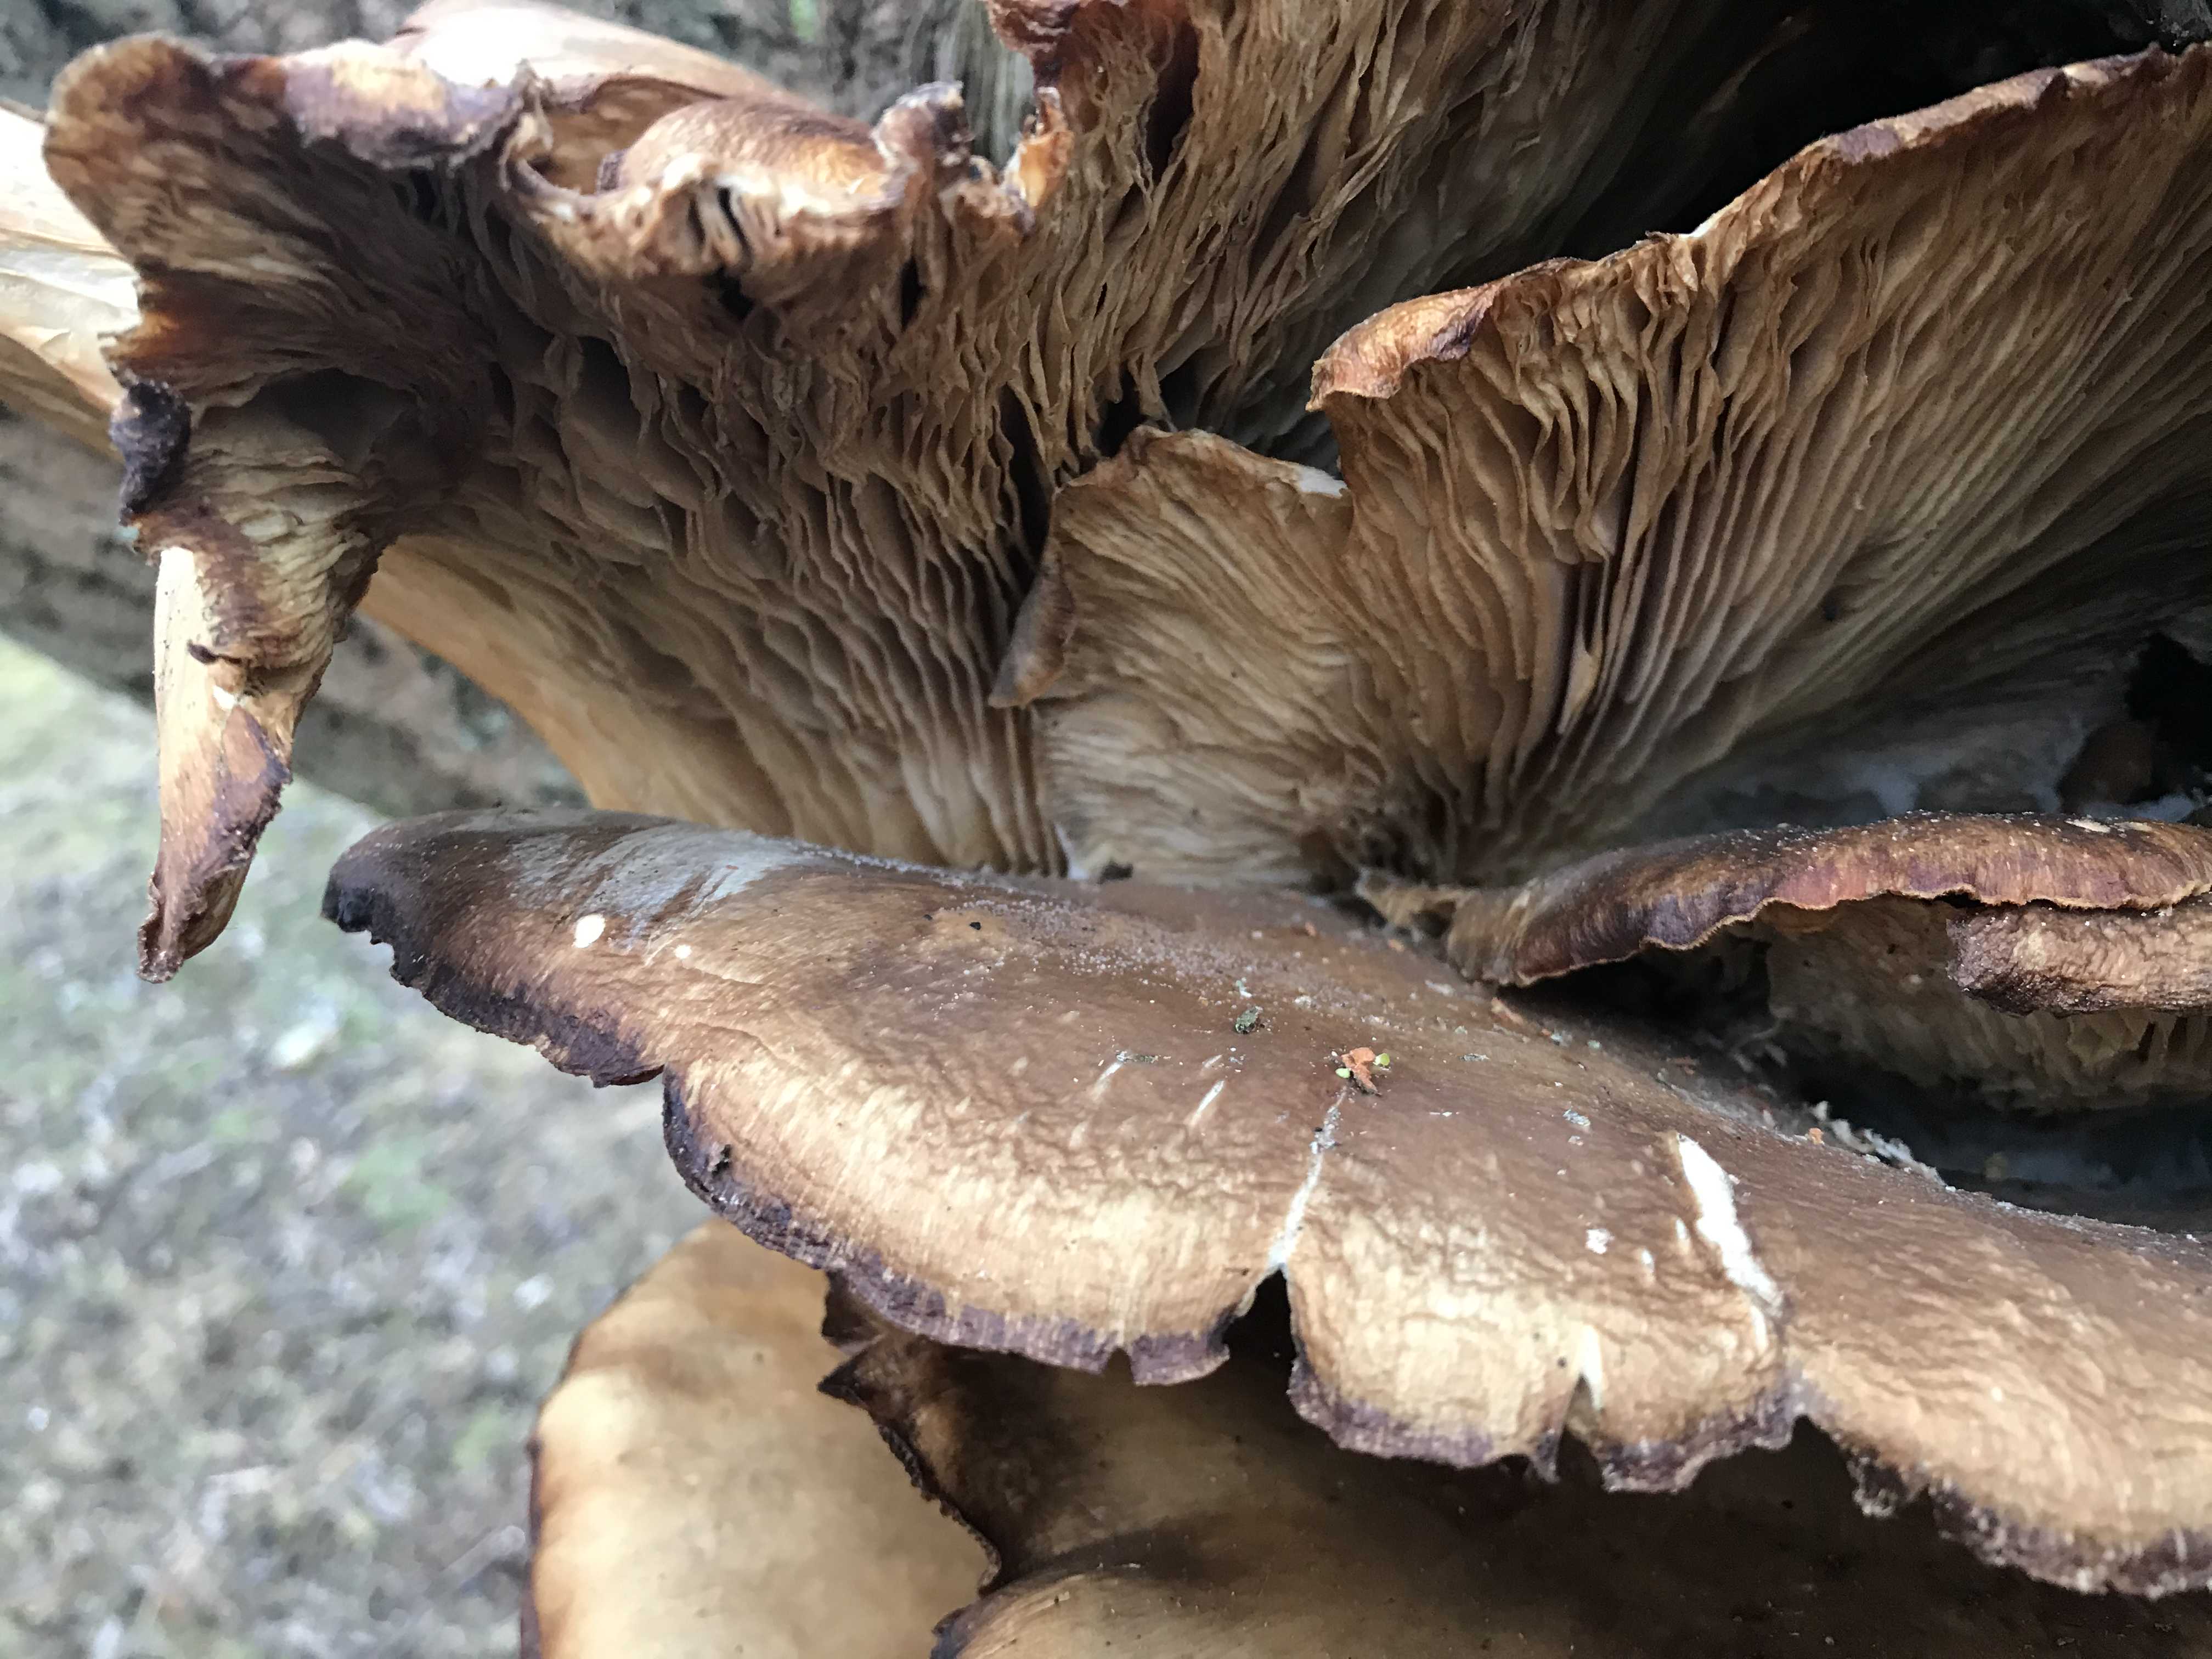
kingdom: Fungi
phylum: Basidiomycota
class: Agaricomycetes
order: Agaricales
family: Pleurotaceae
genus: Pleurotus
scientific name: Pleurotus ostreatus
